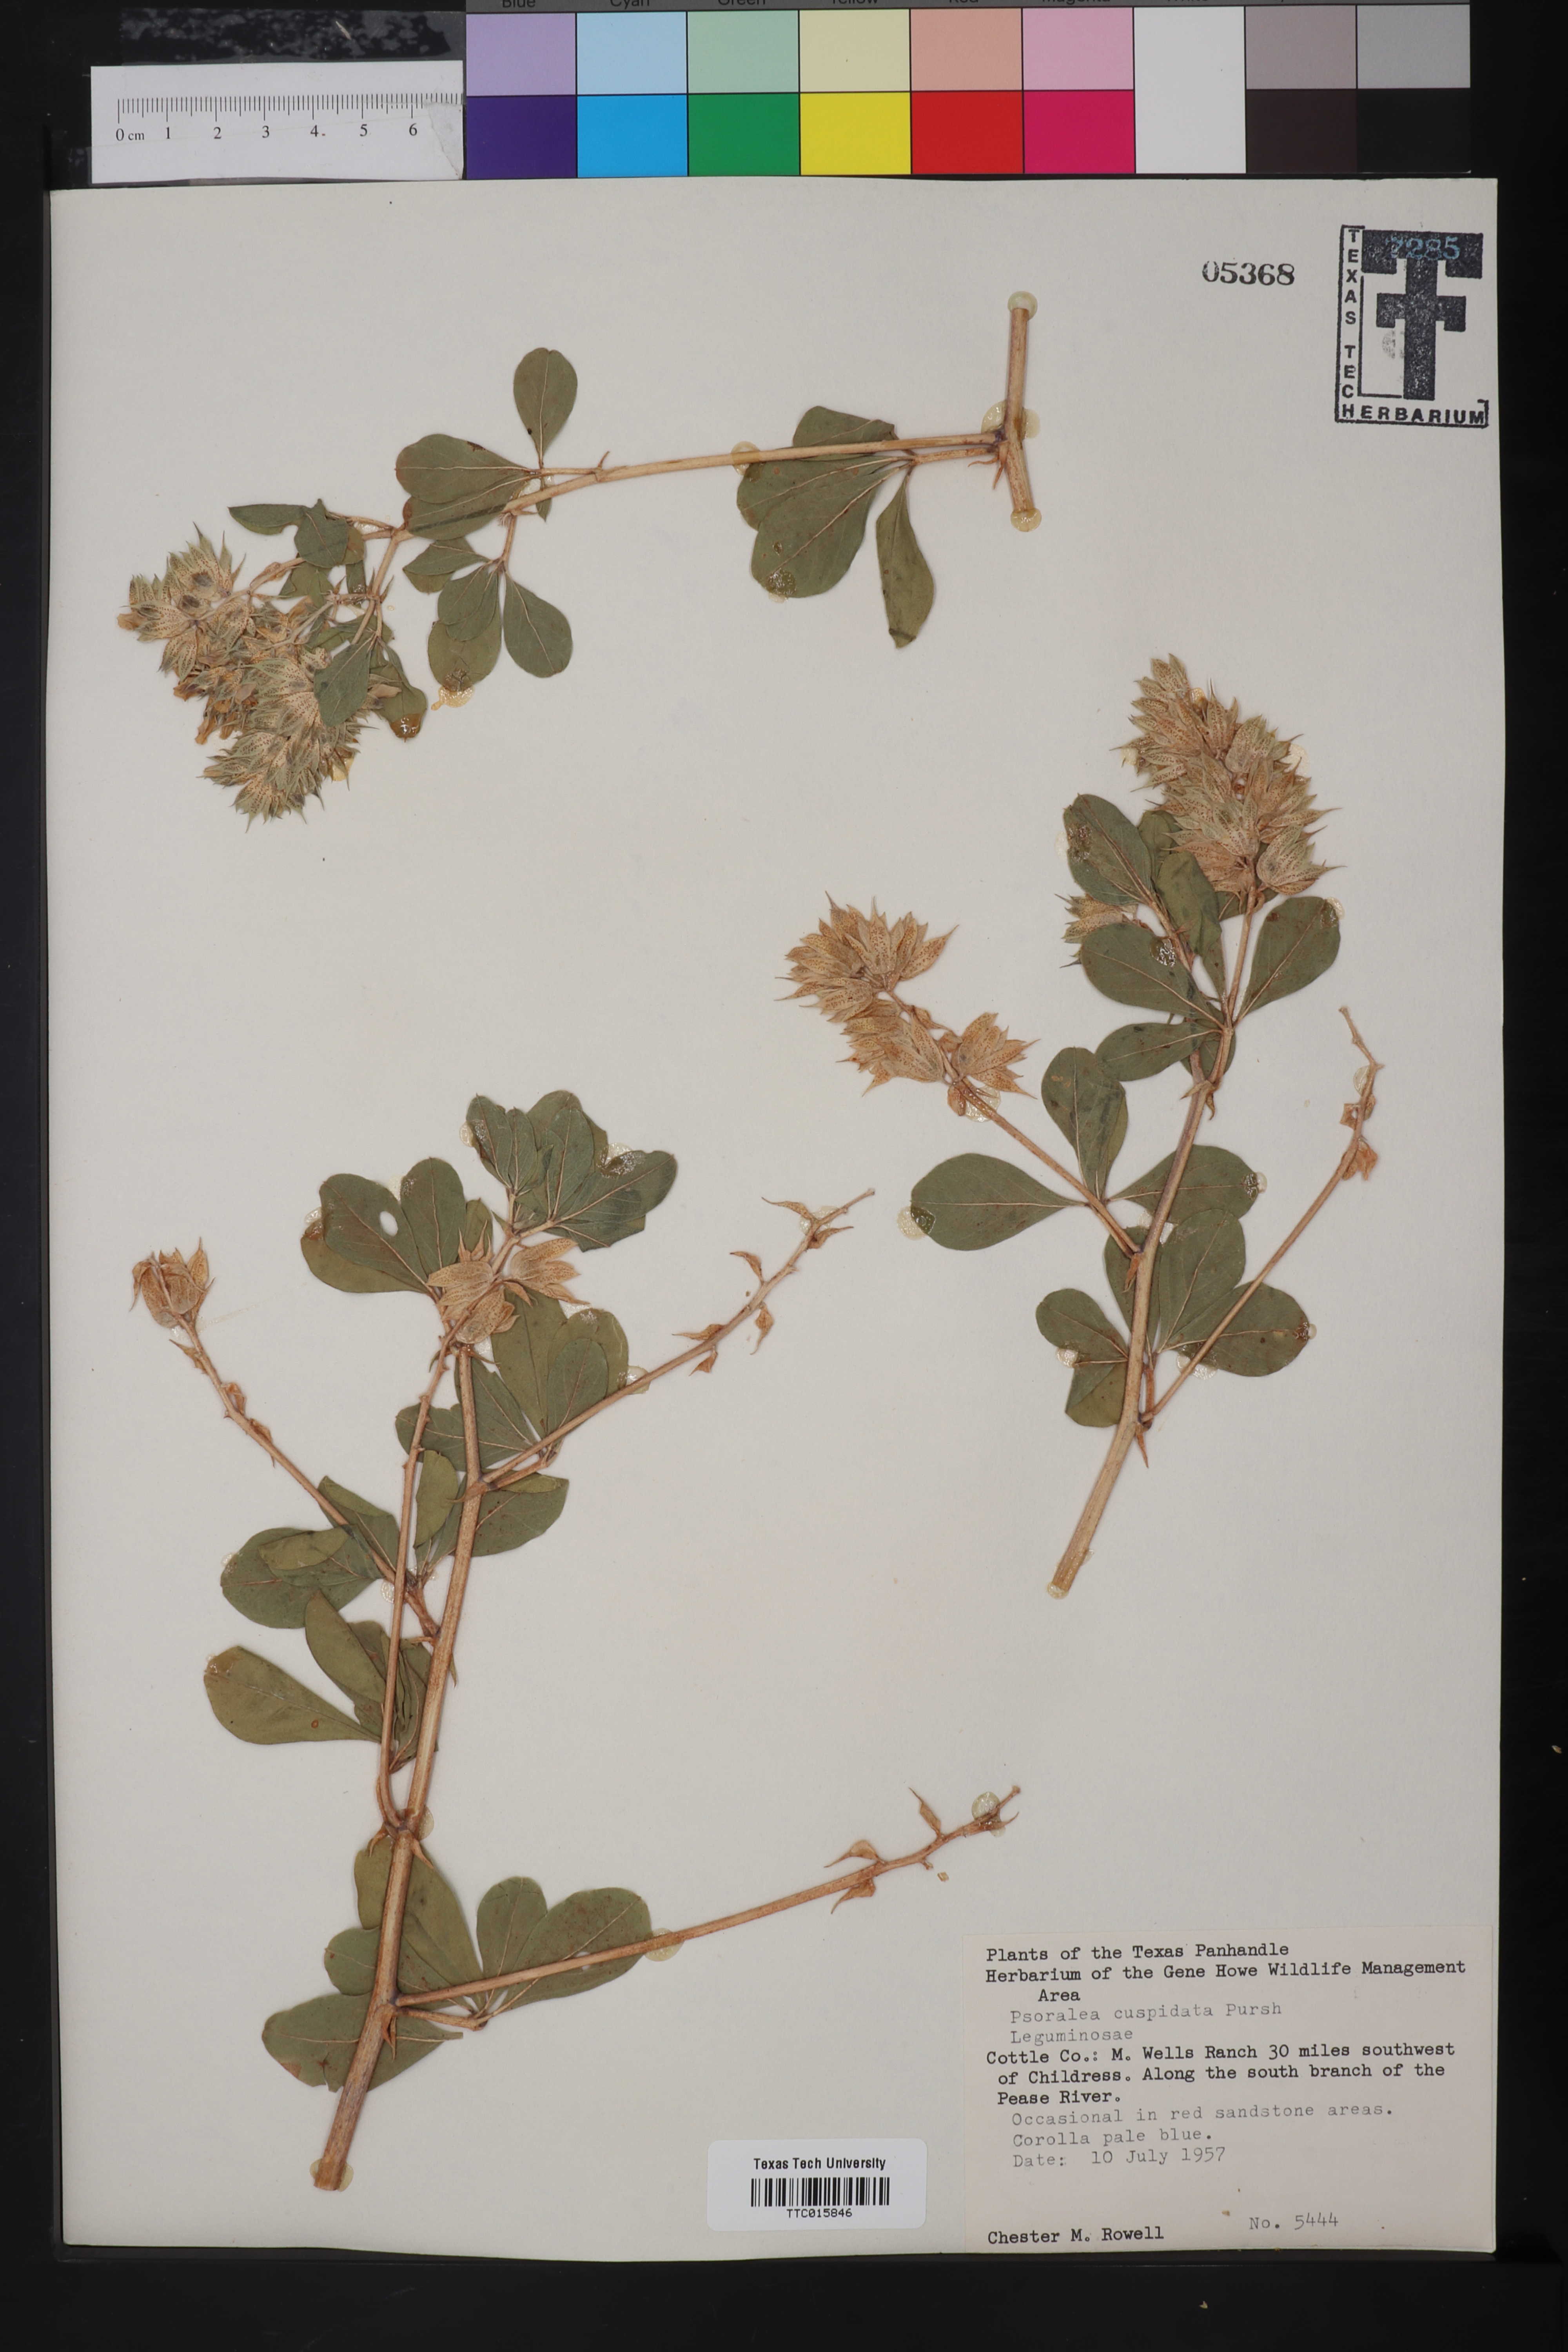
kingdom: Plantae
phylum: Tracheophyta
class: Magnoliopsida
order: Fabales
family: Fabaceae
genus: Pediomelum
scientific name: Pediomelum cuspidatum
